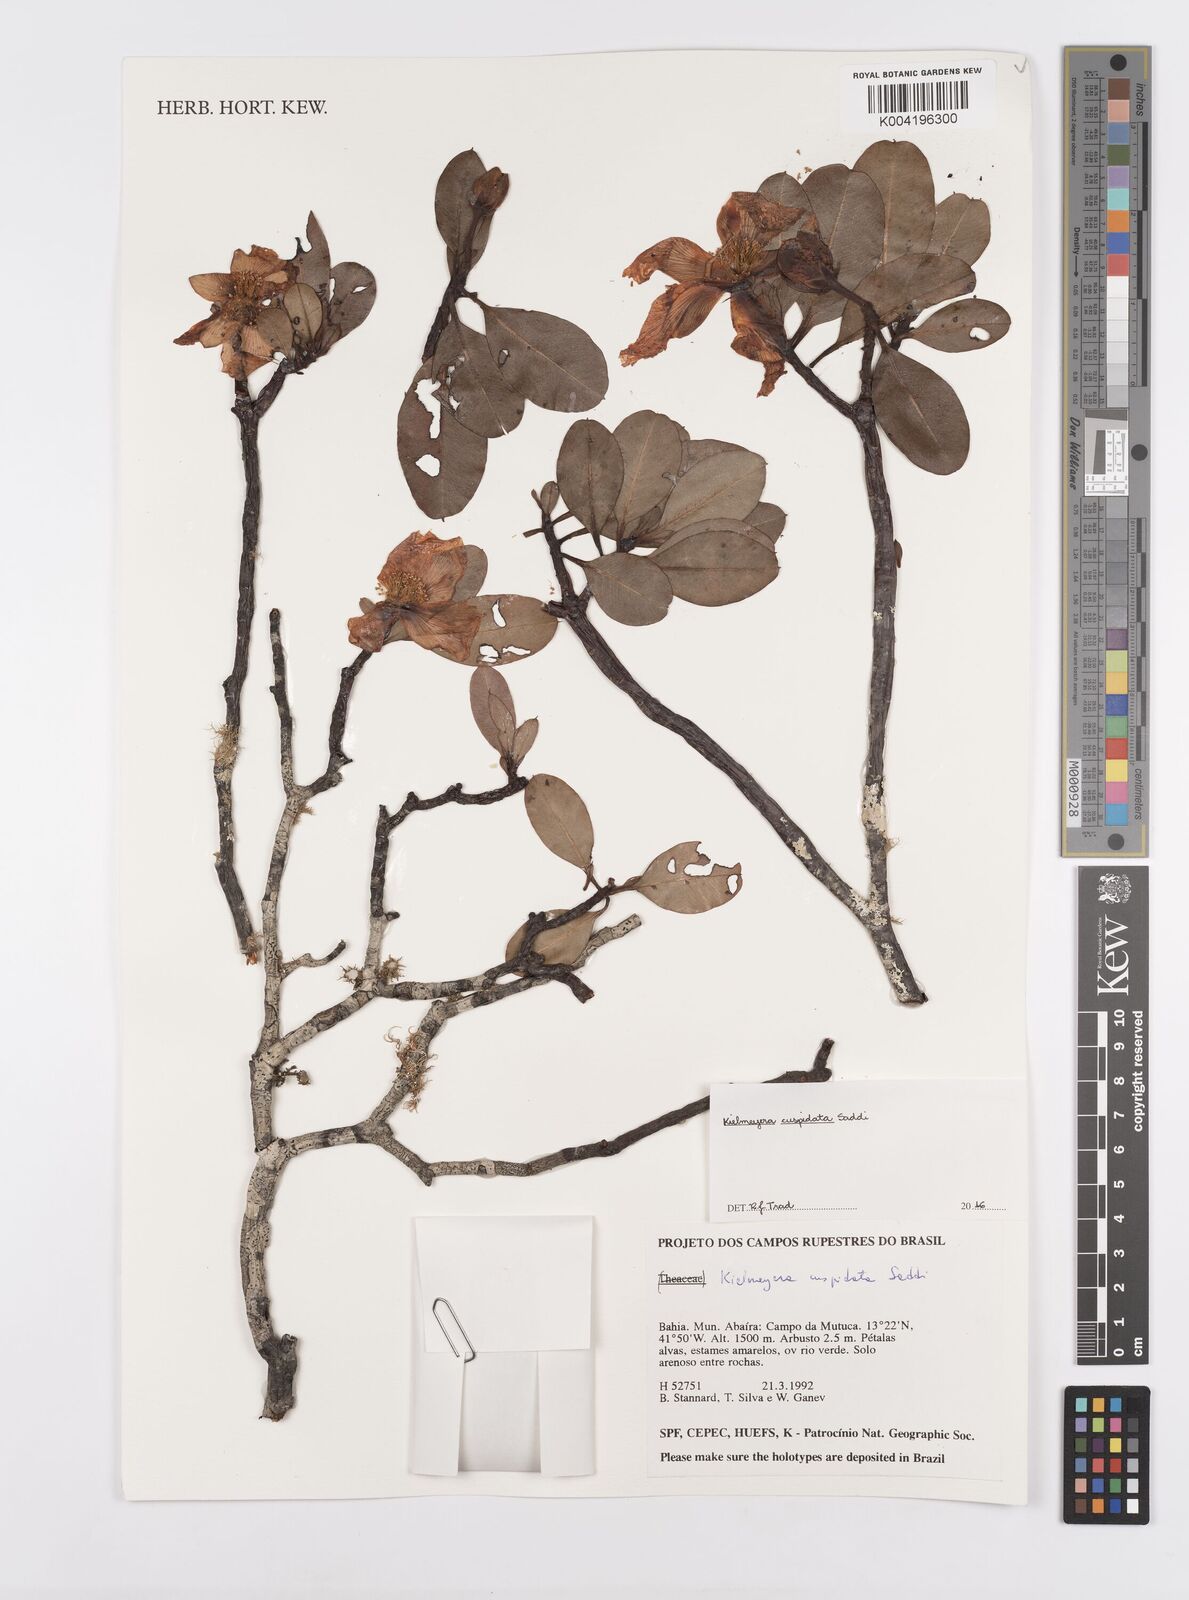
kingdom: Plantae
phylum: Tracheophyta
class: Magnoliopsida
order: Malpighiales
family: Calophyllaceae
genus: Kielmeyera
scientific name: Kielmeyera cuspidata
